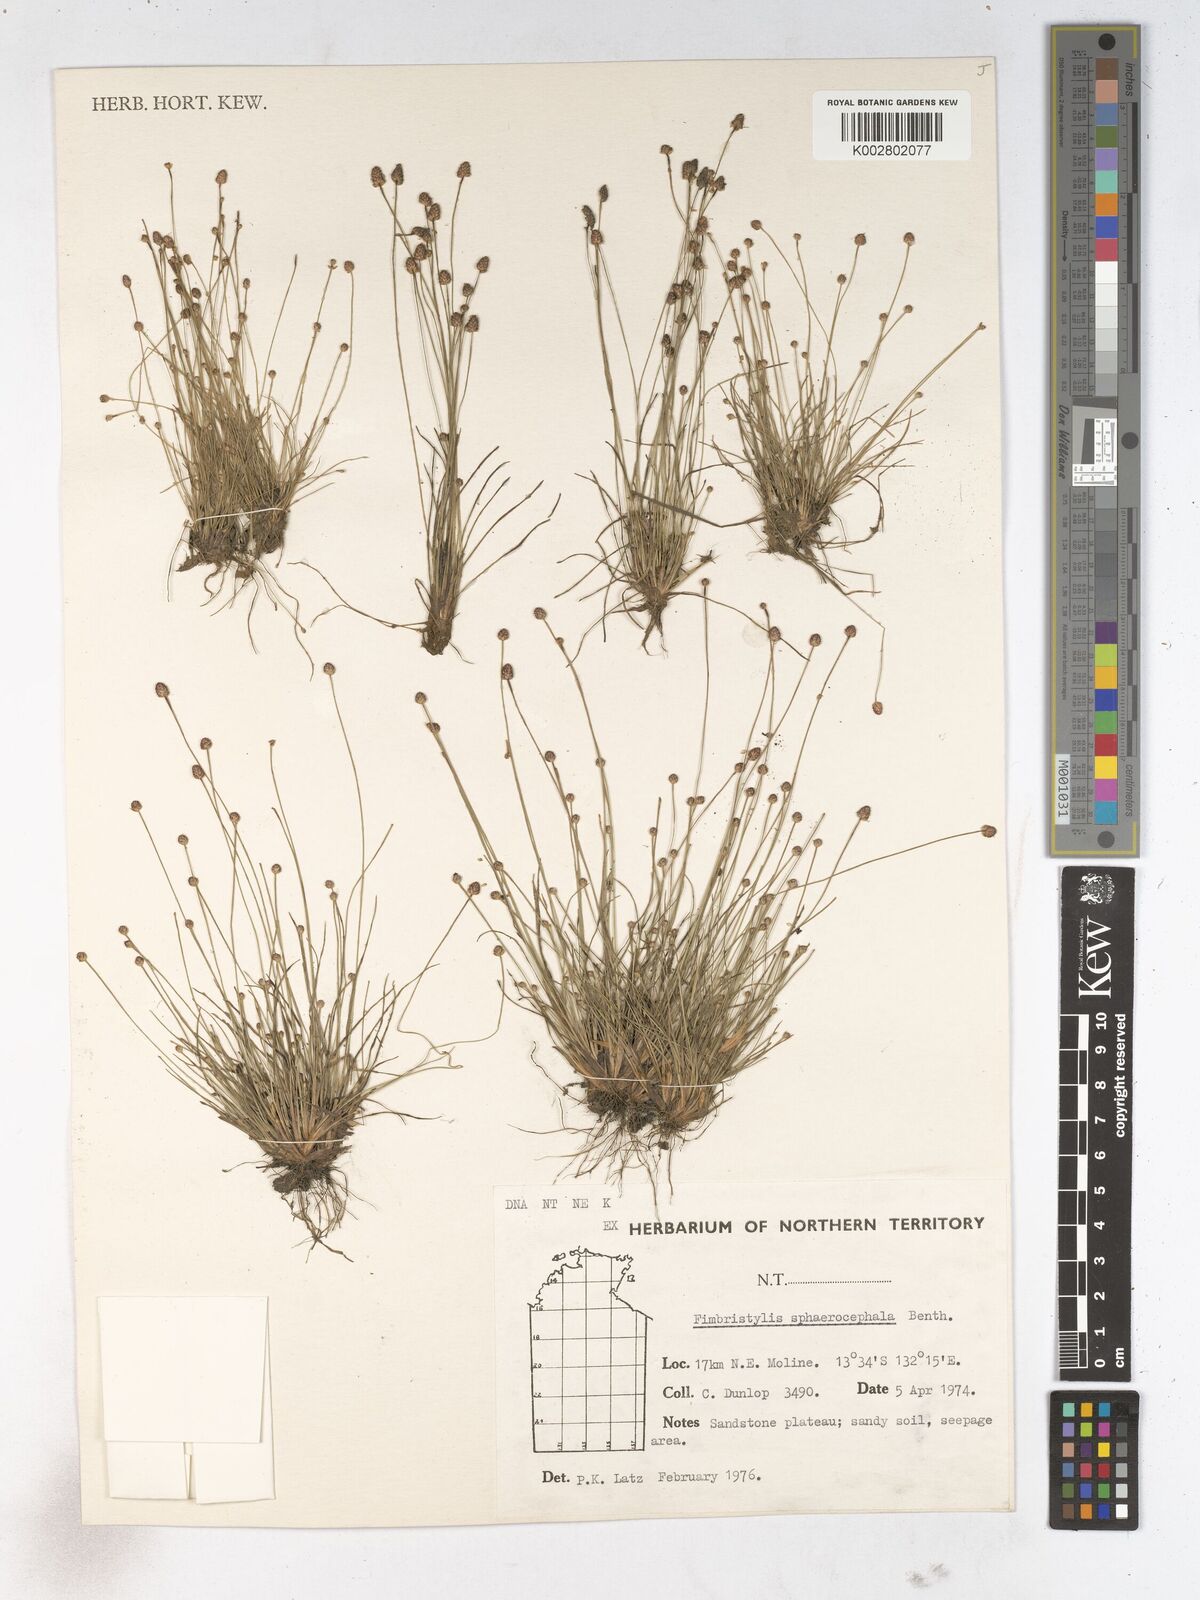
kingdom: Plantae
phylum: Tracheophyta
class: Liliopsida
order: Poales
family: Cyperaceae
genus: Fimbristylis
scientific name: Fimbristylis sphaerocephala
